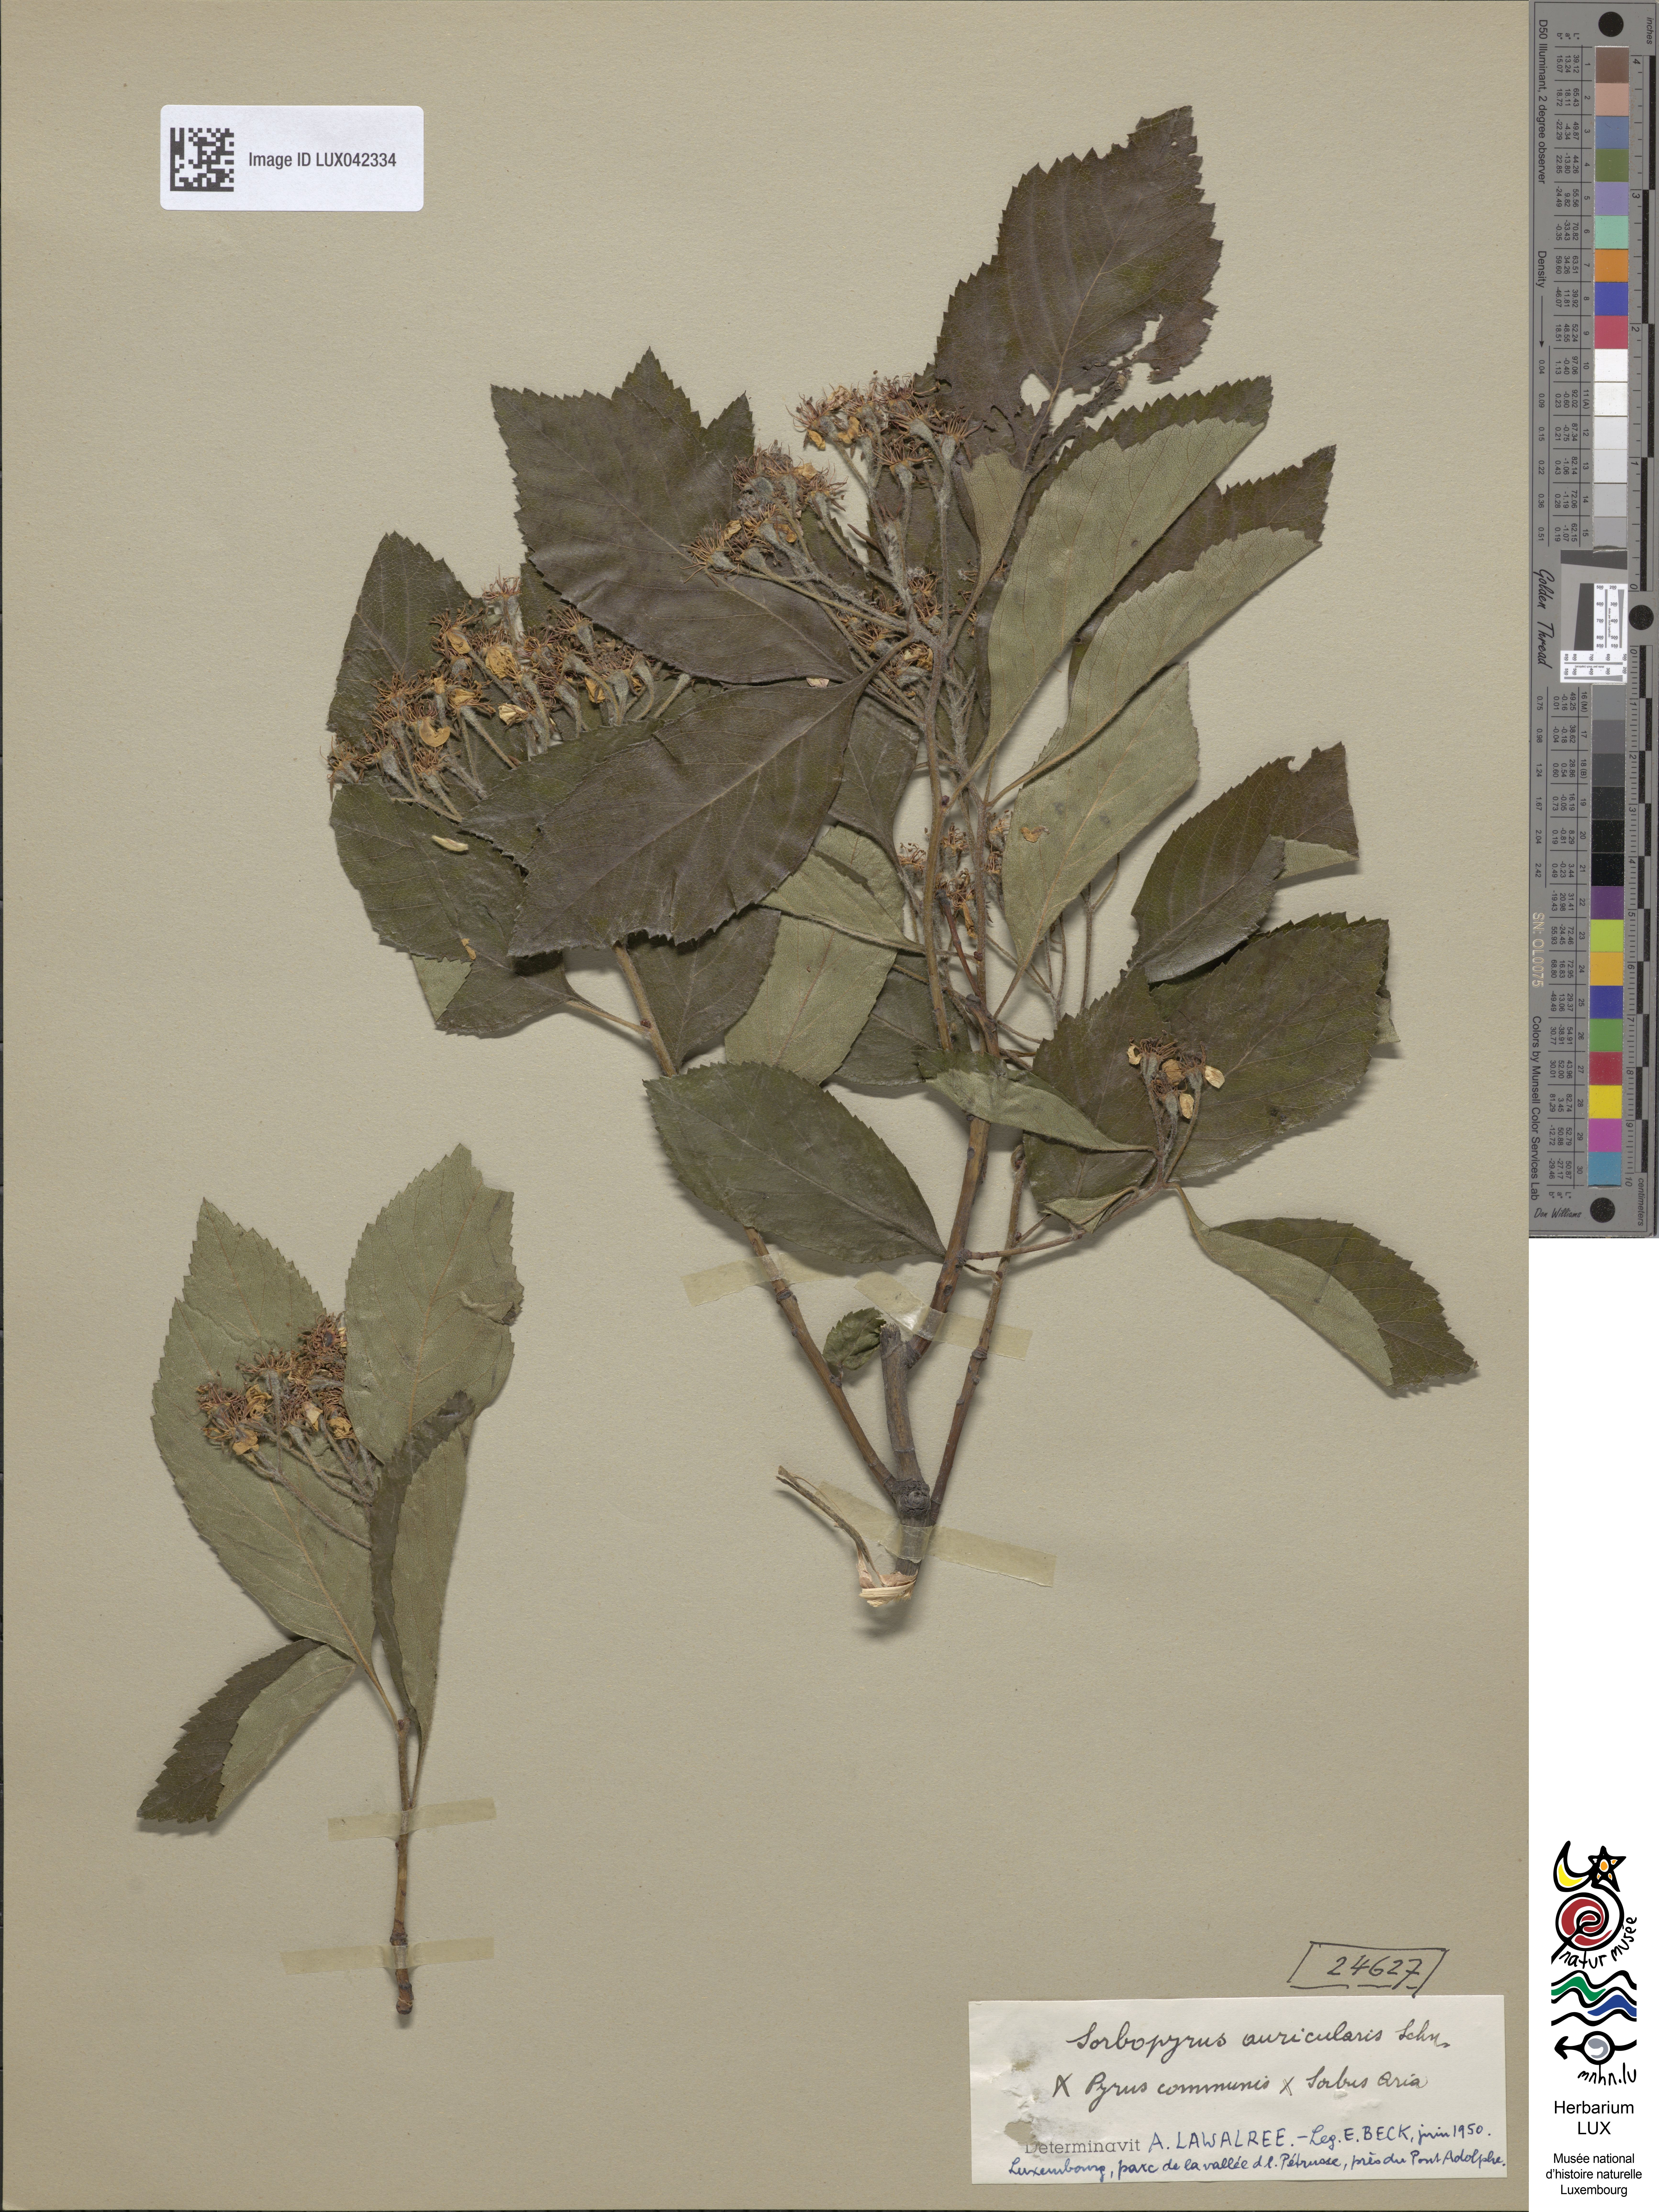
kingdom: Plantae
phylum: Tracheophyta
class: Magnoliopsida
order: Rosales
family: Rosaceae
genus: Pyraria
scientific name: Pyraria irregularis
